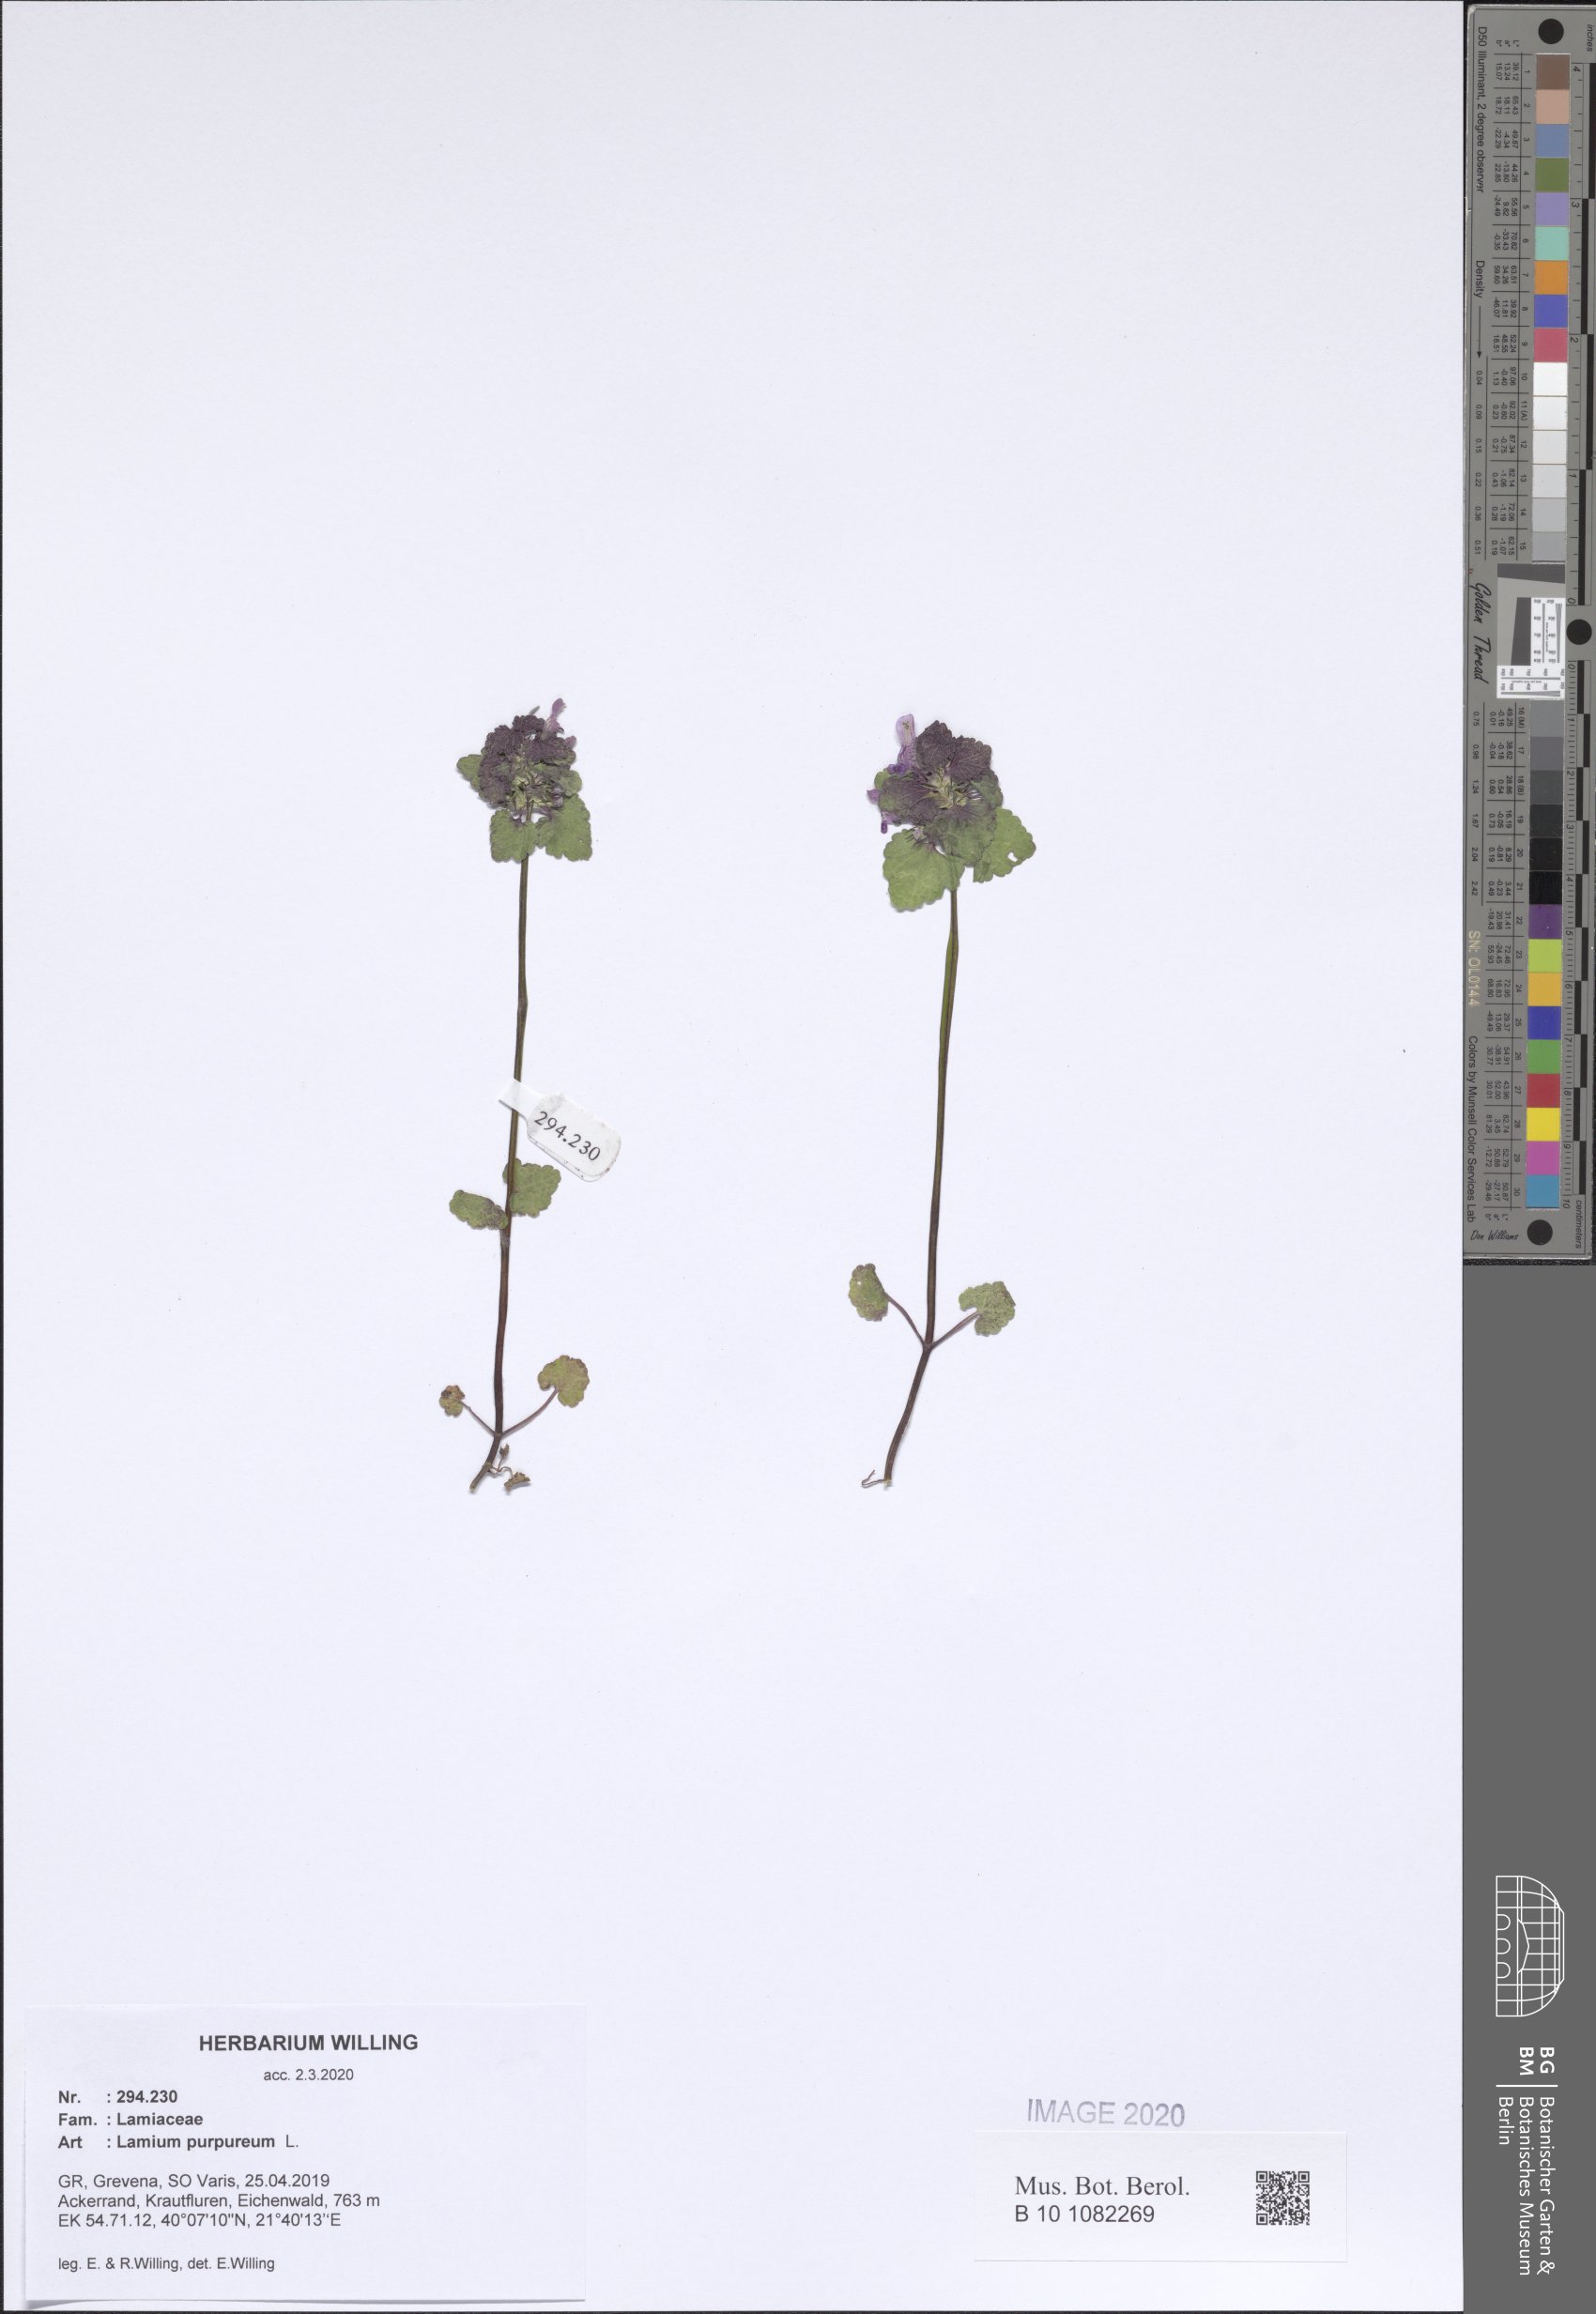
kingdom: Plantae
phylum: Tracheophyta
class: Magnoliopsida
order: Lamiales
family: Lamiaceae
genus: Lamium
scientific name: Lamium purpureum
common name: Red dead-nettle
